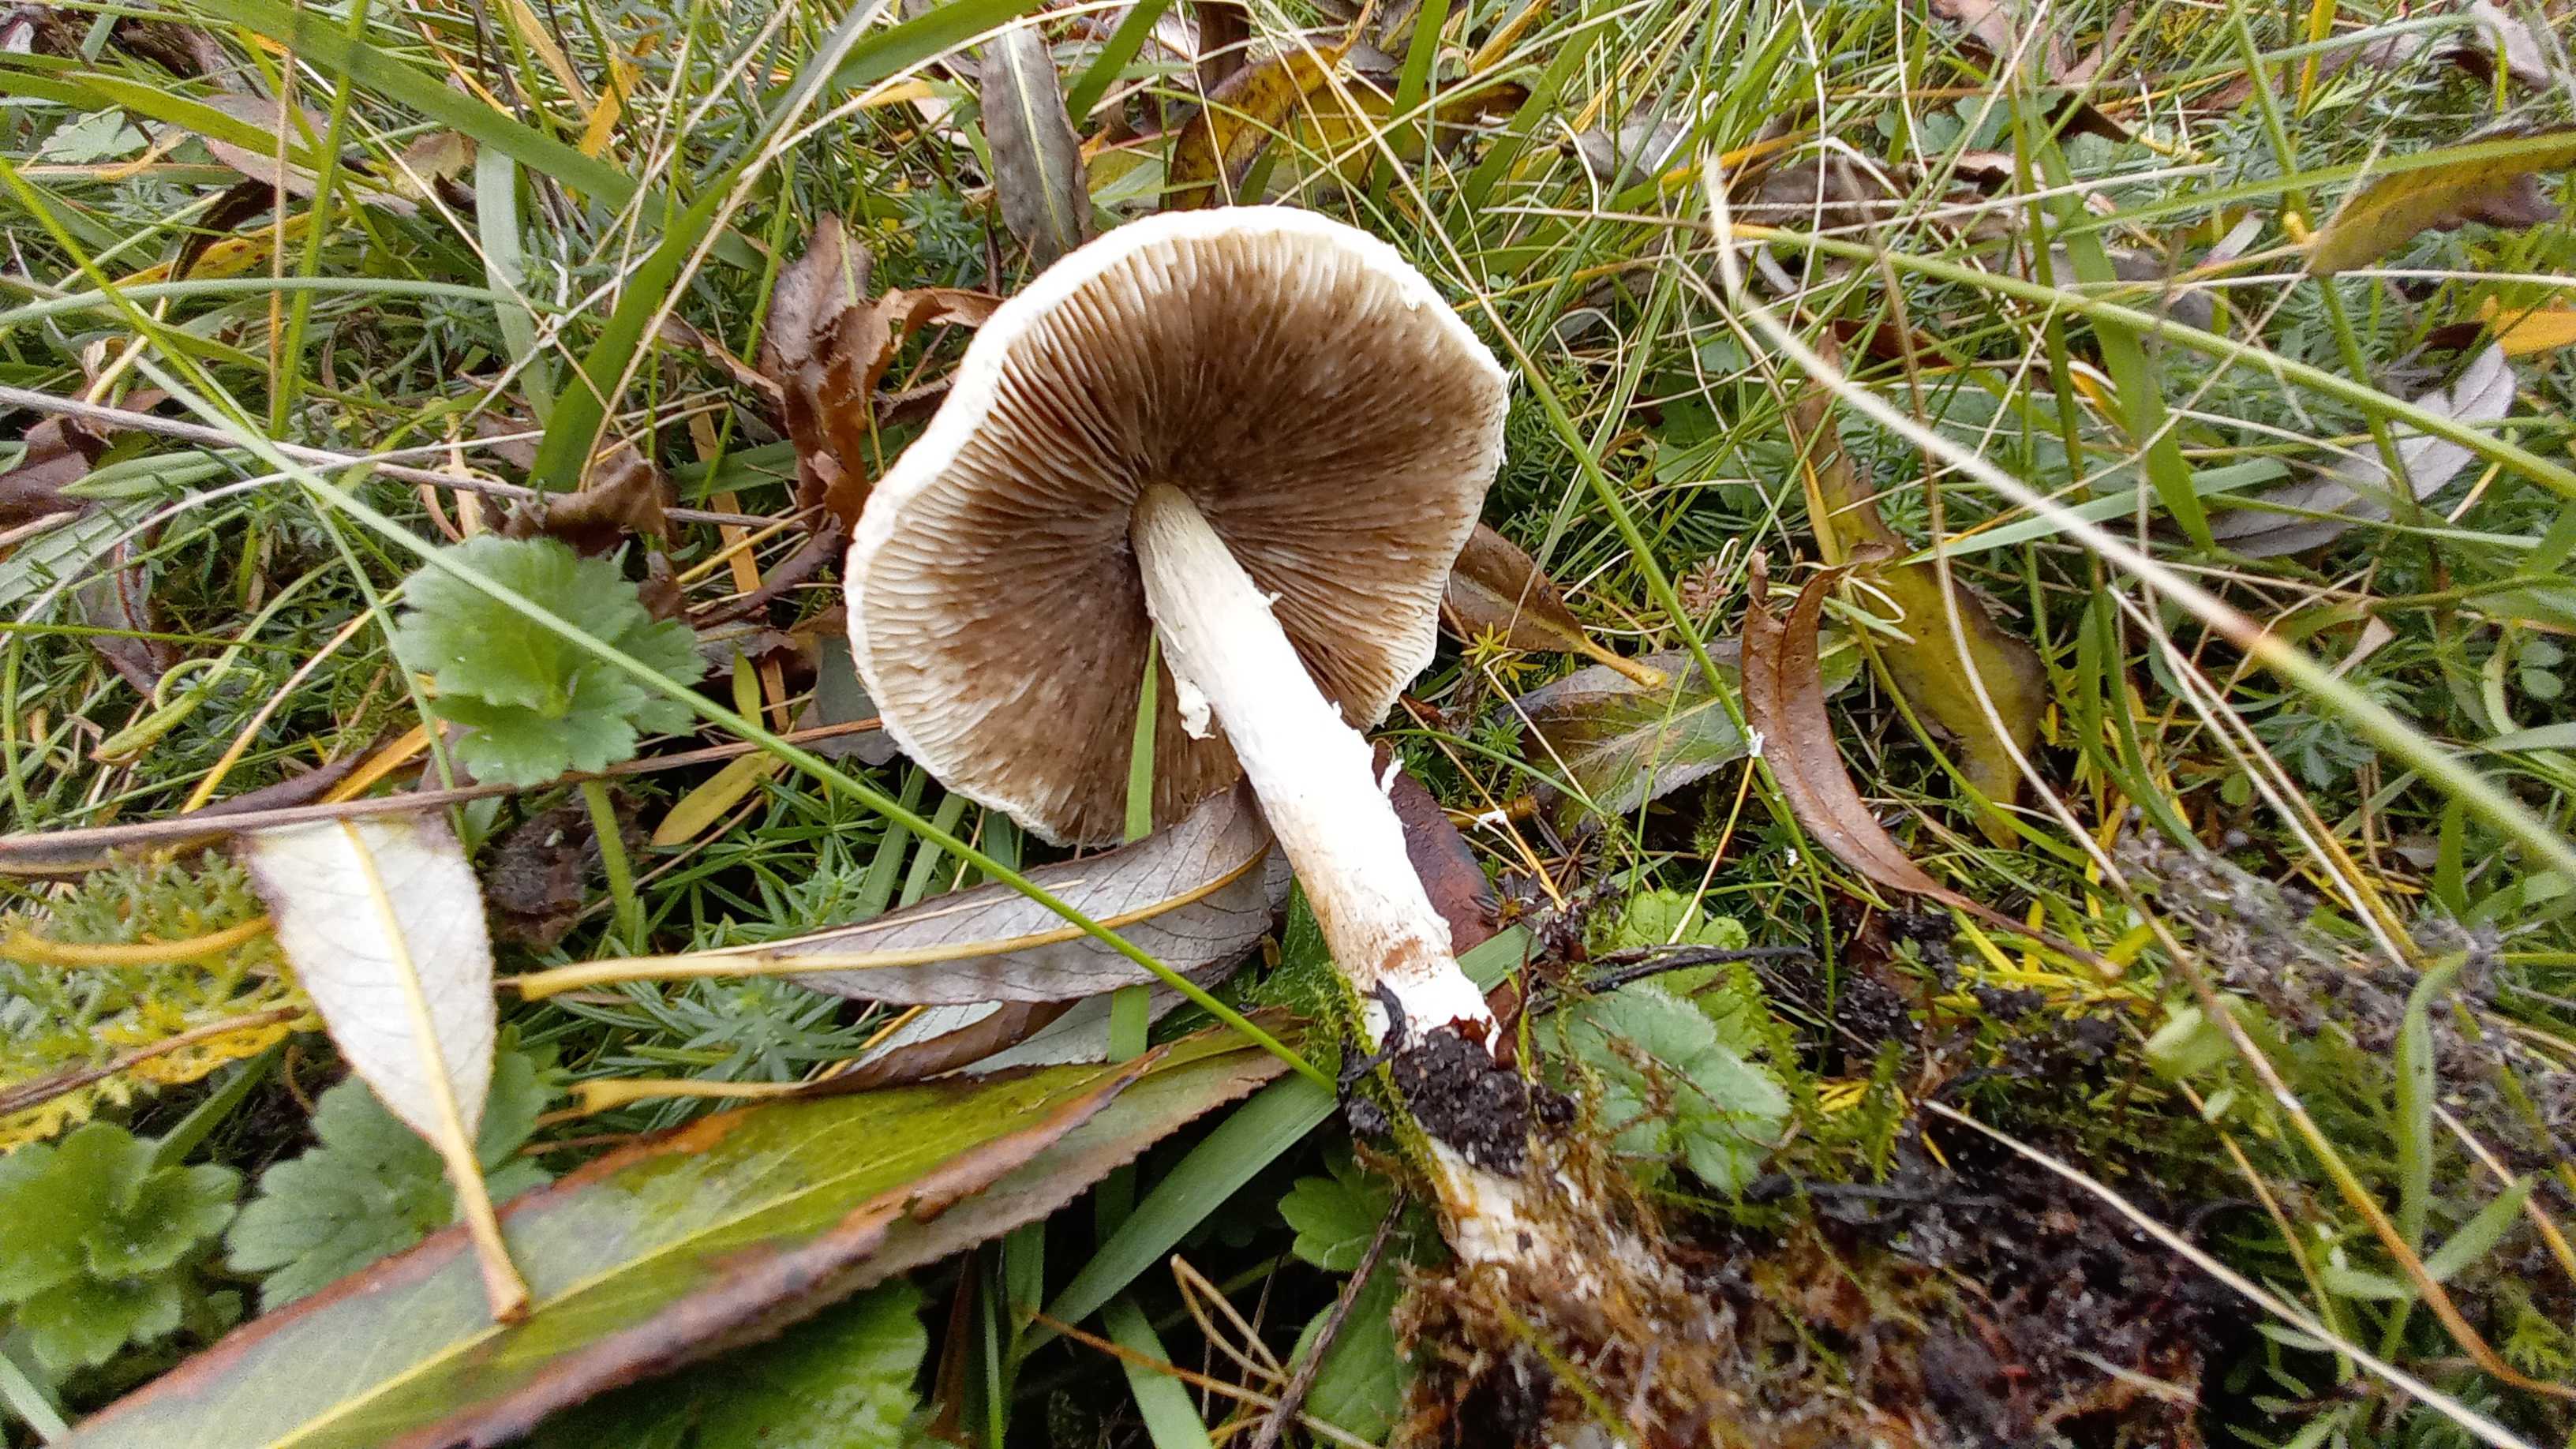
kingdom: Fungi
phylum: Basidiomycota
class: Agaricomycetes
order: Agaricales
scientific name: Agaricales
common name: champignonordenen
